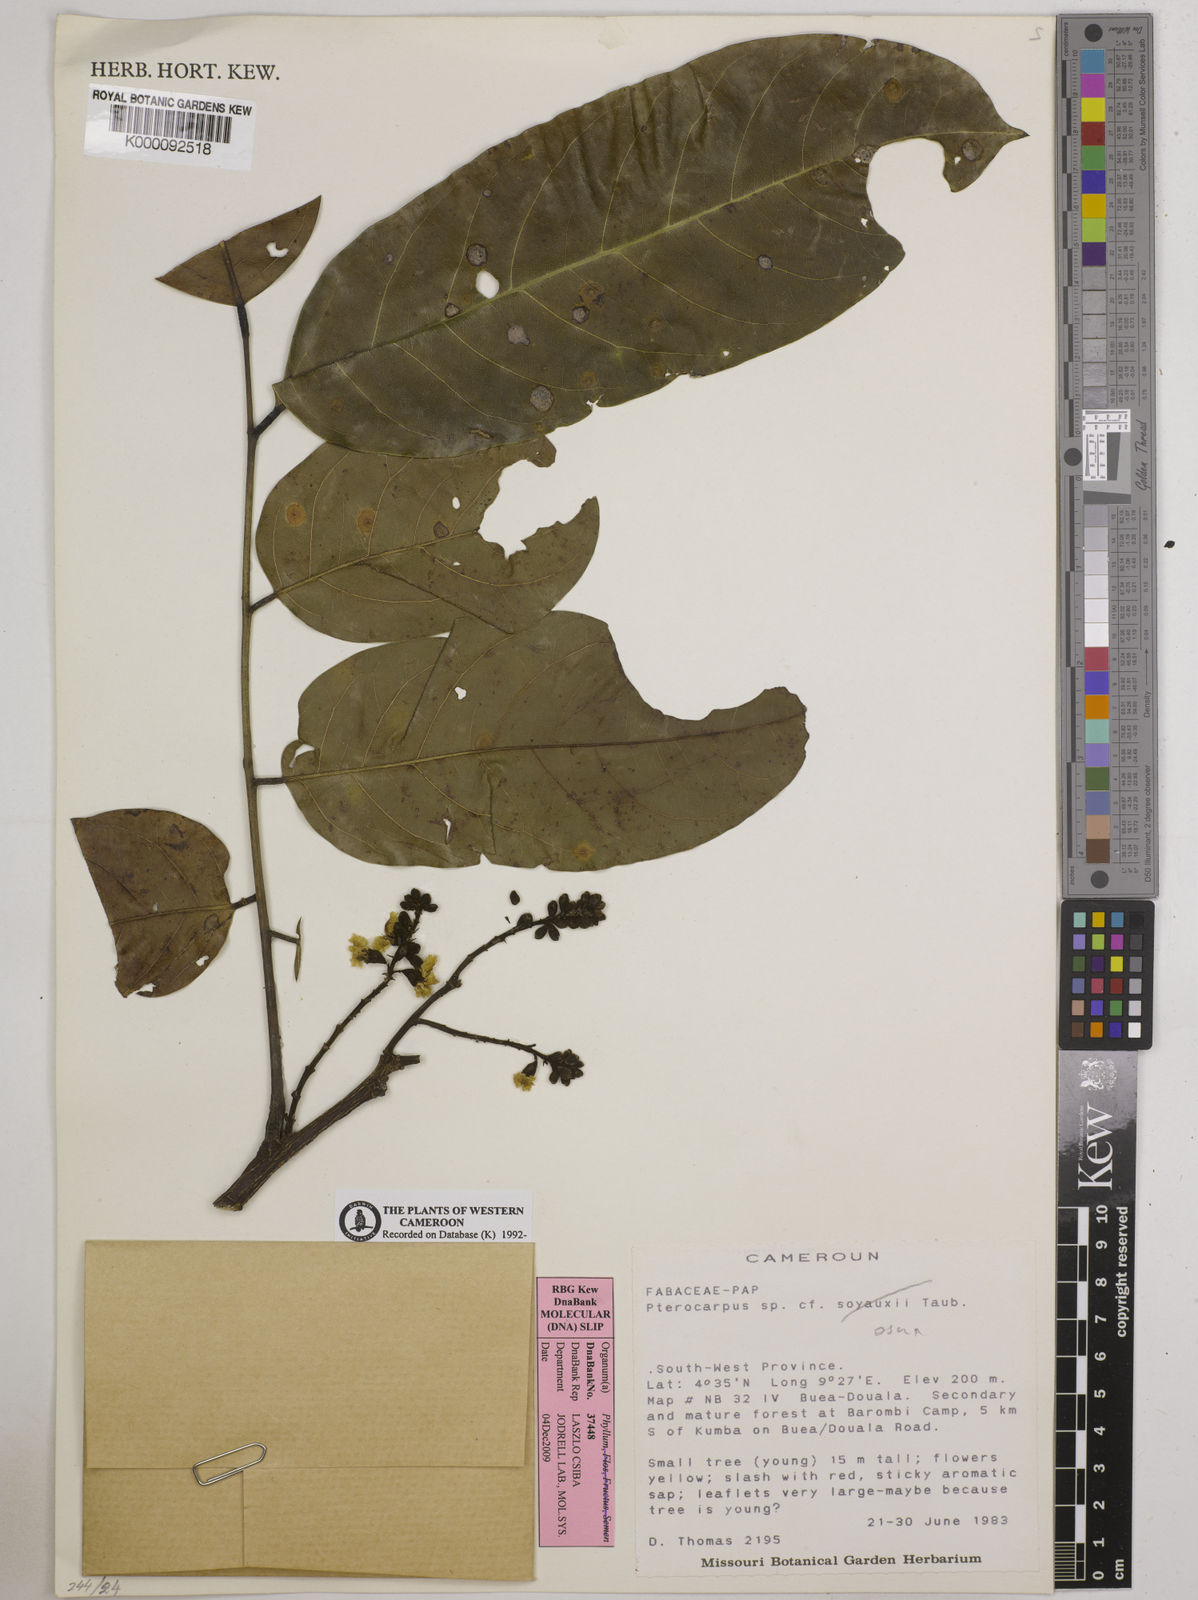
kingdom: Plantae
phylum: Tracheophyta
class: Magnoliopsida
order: Fabales
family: Fabaceae
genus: Pterocarpus
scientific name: Pterocarpus osun
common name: Camwood
